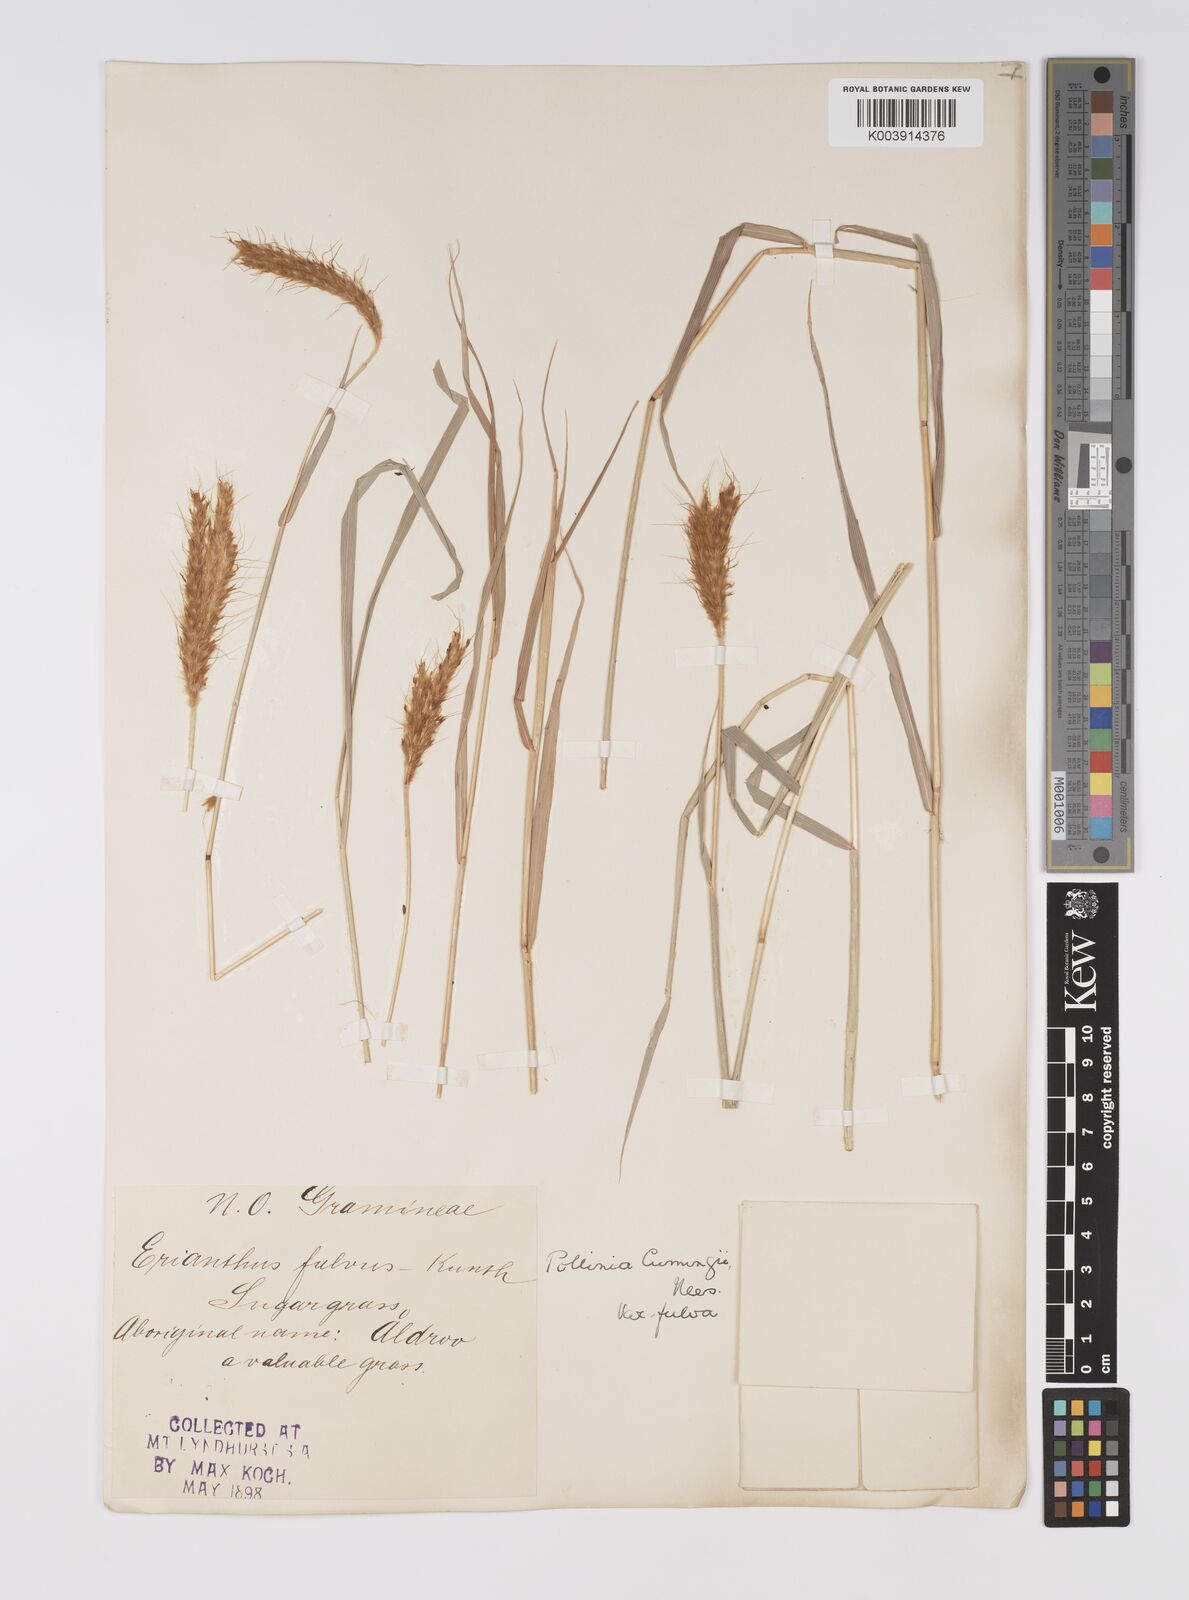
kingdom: Plantae
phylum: Tracheophyta
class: Liliopsida
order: Poales
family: Poaceae
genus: Eulalia
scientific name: Eulalia aurea
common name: Silky browntop
